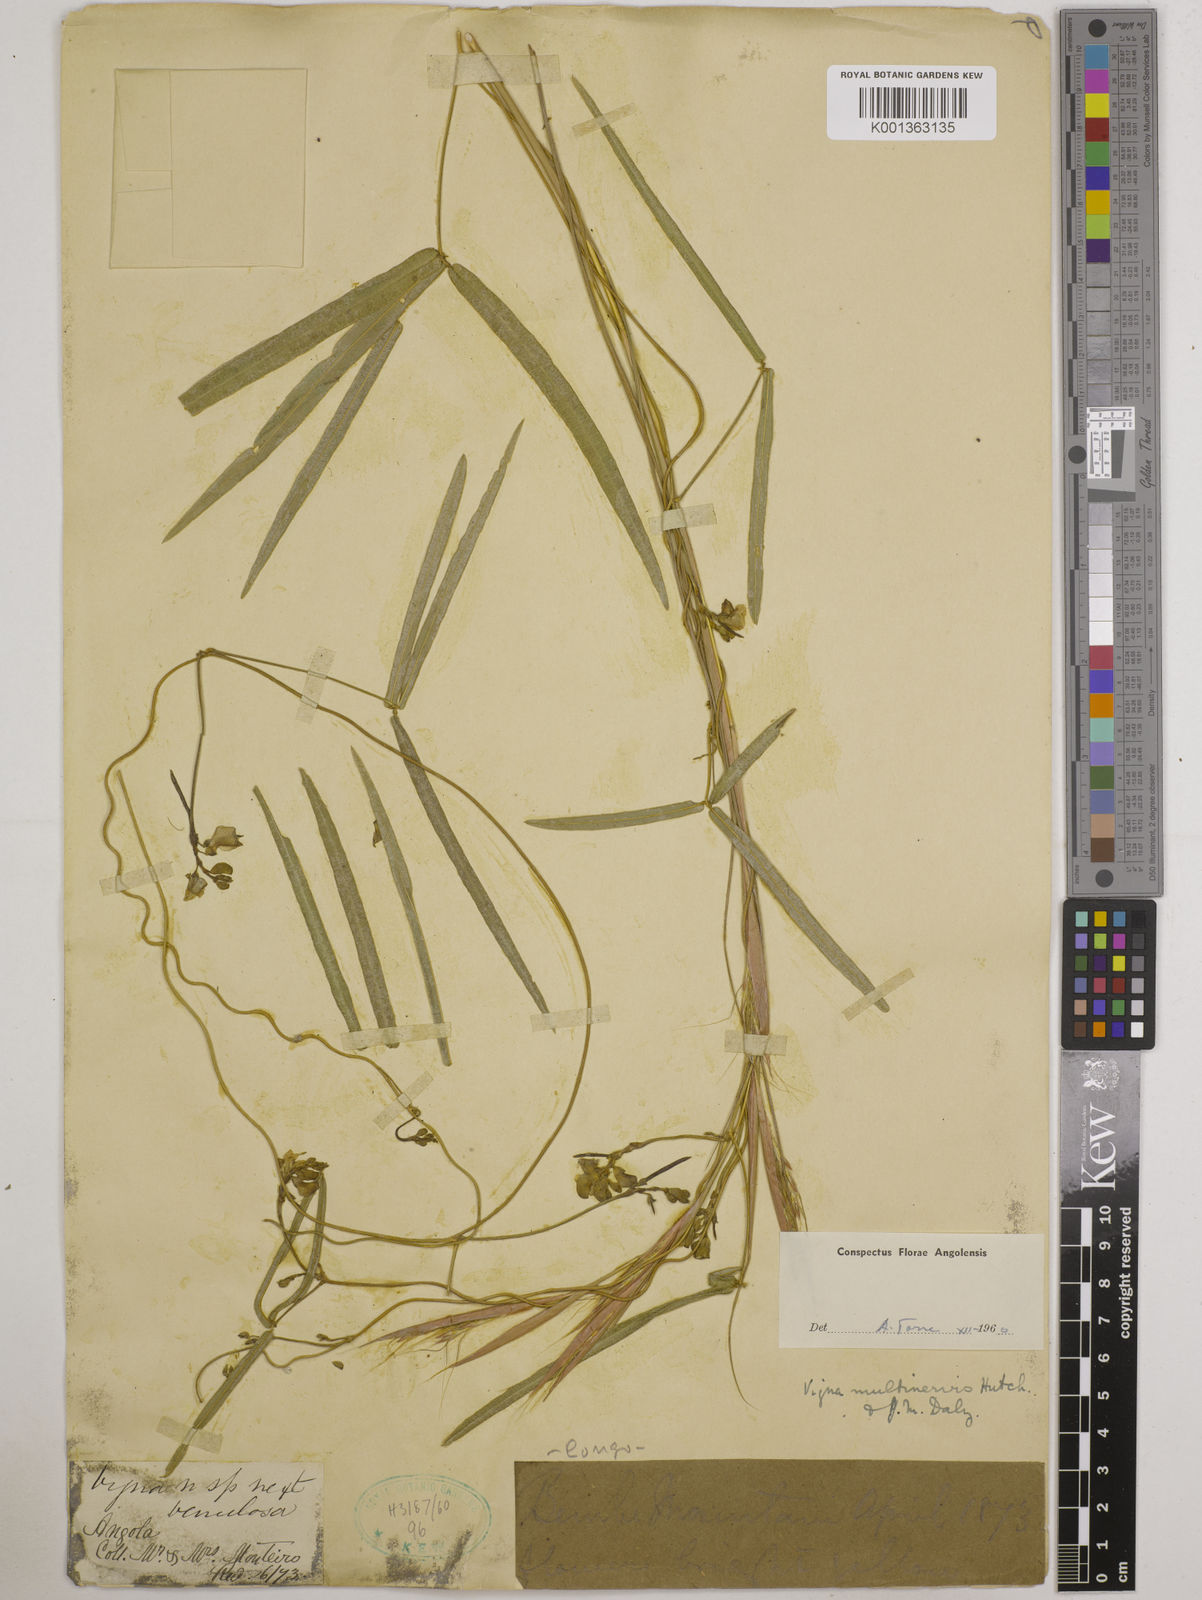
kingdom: Plantae
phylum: Tracheophyta
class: Magnoliopsida
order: Fabales
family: Fabaceae
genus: Vigna
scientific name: Vigna multinervis
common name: Fula-pulaar
